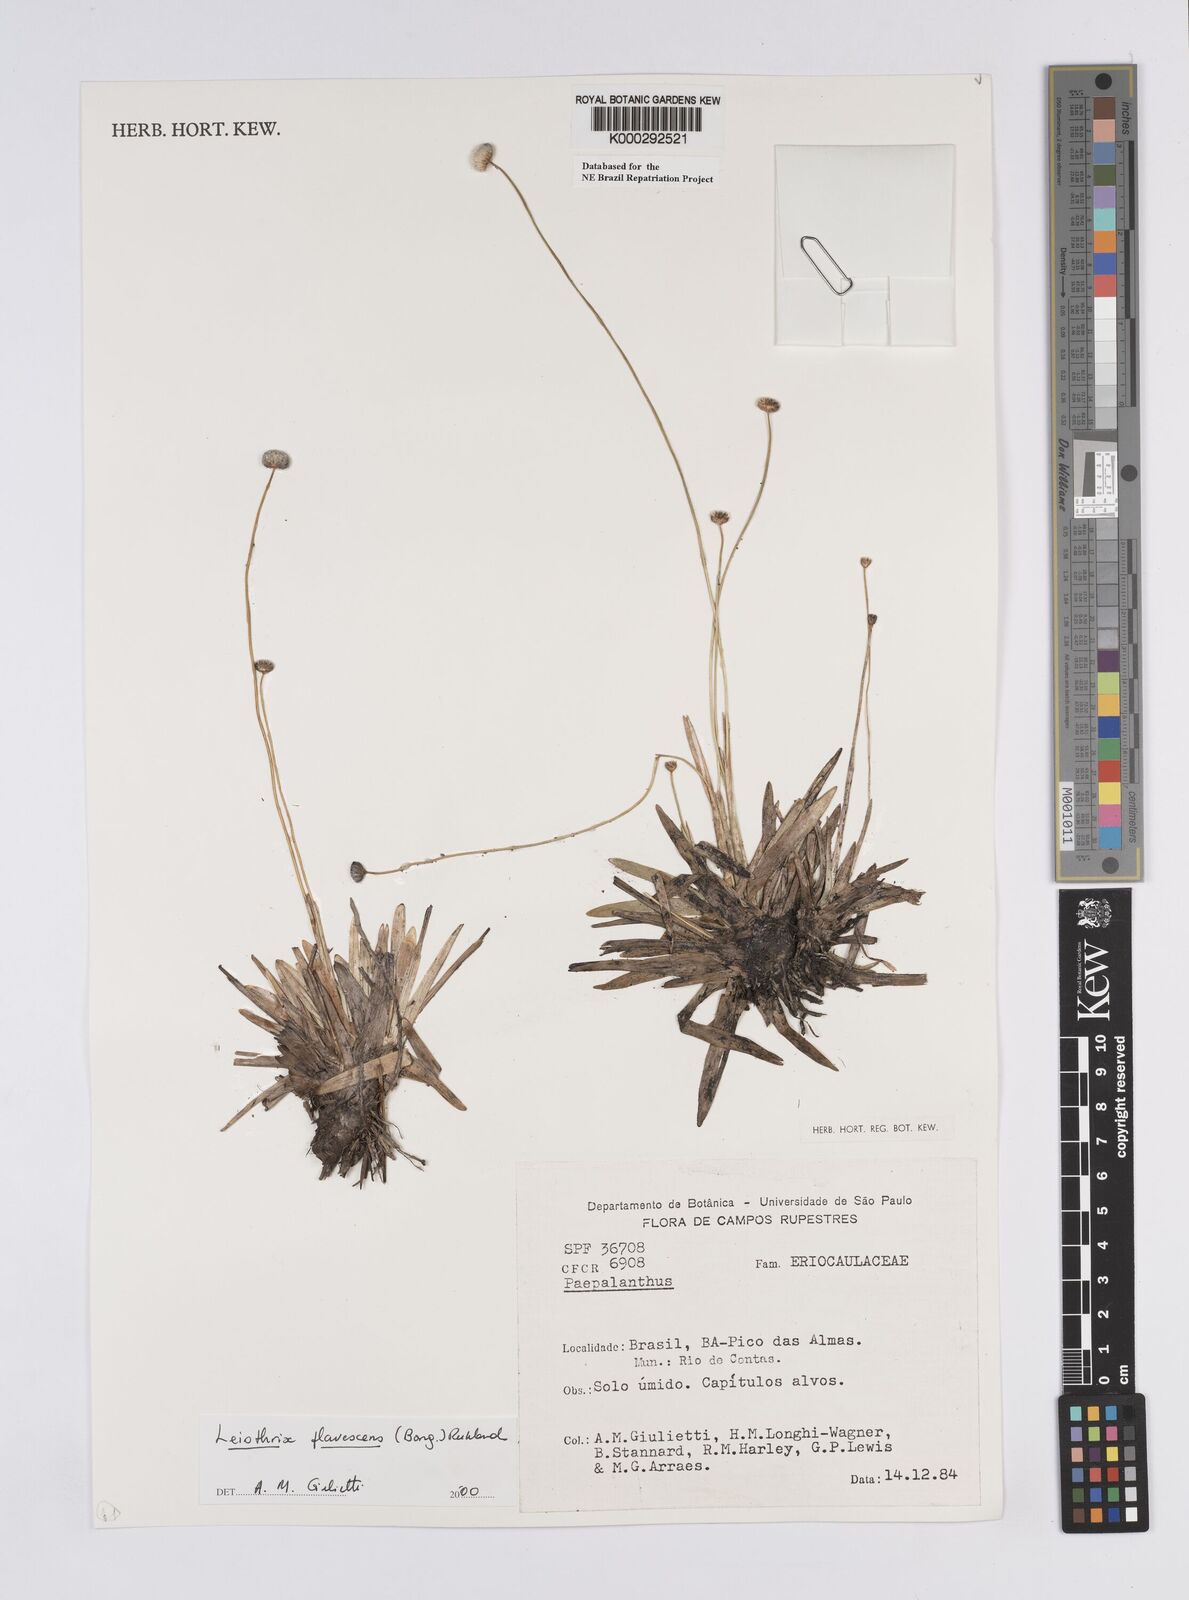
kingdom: Plantae
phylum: Tracheophyta
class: Liliopsida
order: Poales
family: Eriocaulaceae
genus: Leiothrix
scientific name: Leiothrix flavescens
